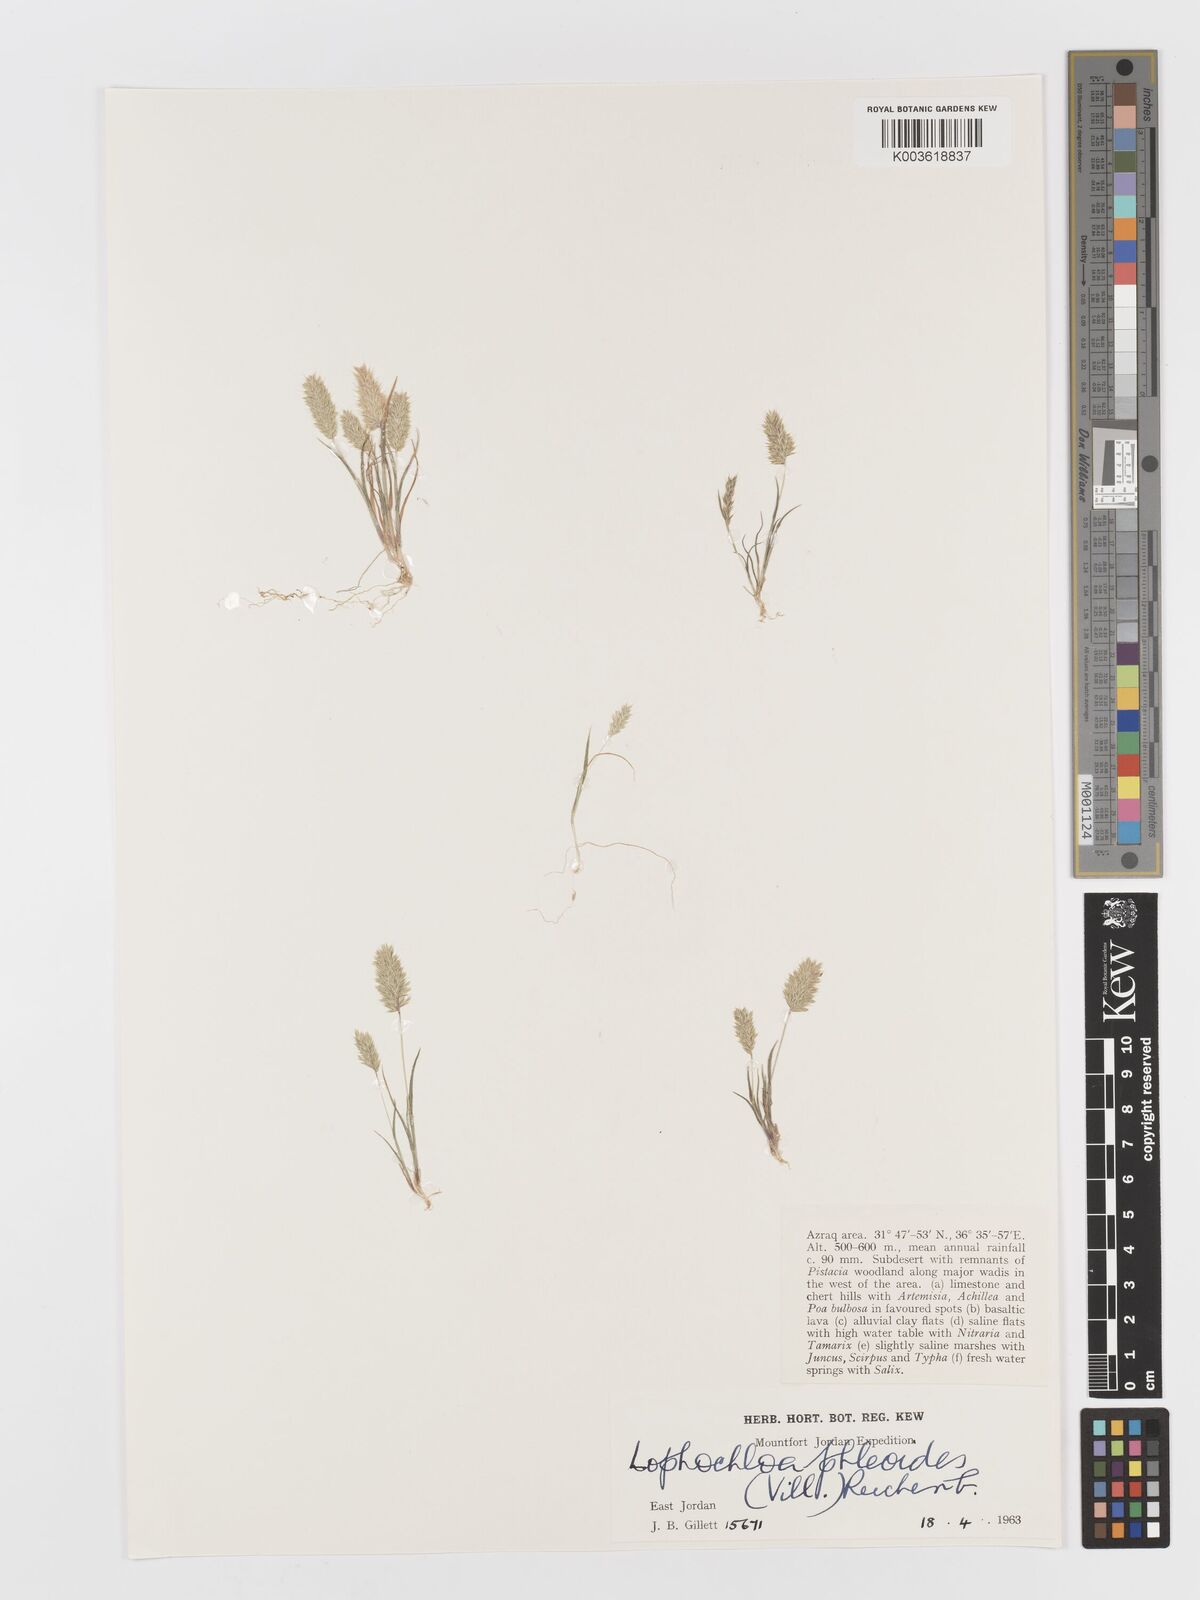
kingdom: Plantae
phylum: Tracheophyta
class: Liliopsida
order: Poales
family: Poaceae
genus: Rostraria
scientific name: Rostraria cristata
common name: Mediterranean hair-grass
